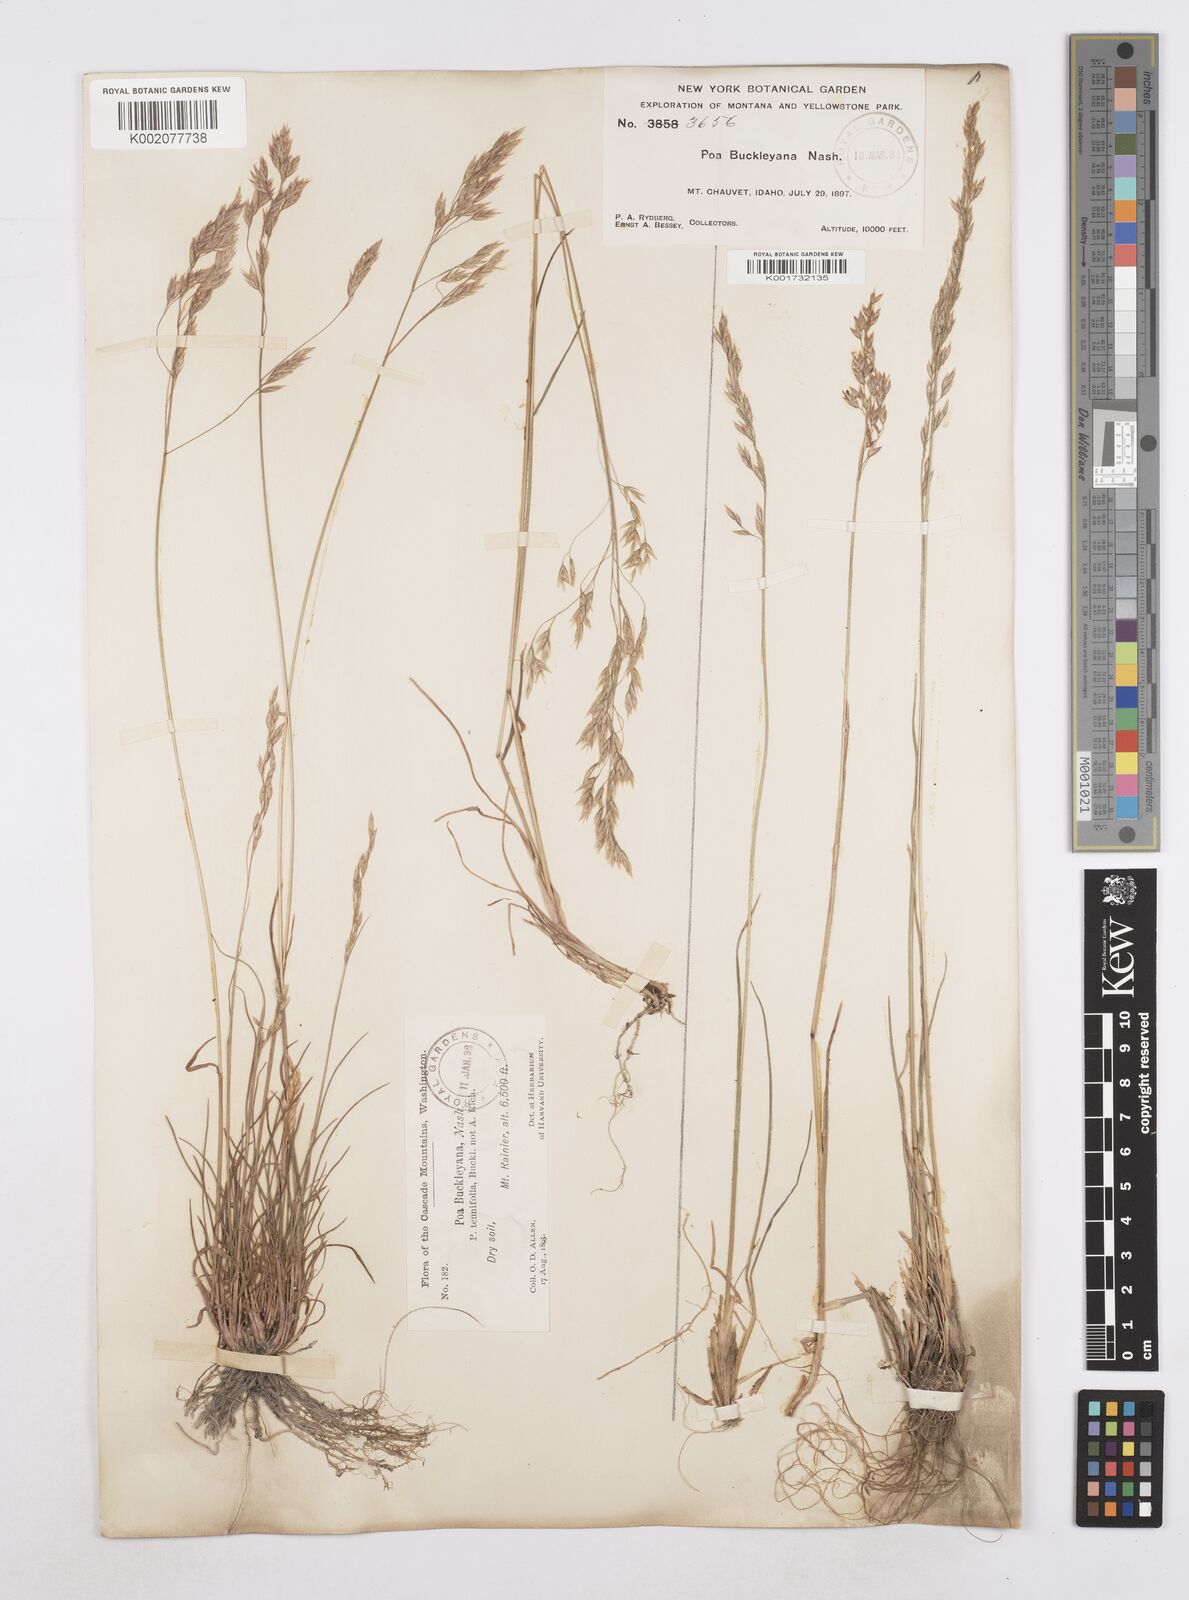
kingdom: Plantae
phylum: Tracheophyta
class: Liliopsida
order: Poales
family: Poaceae
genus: Poa
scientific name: Poa secunda
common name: Sandberg bluegrass
